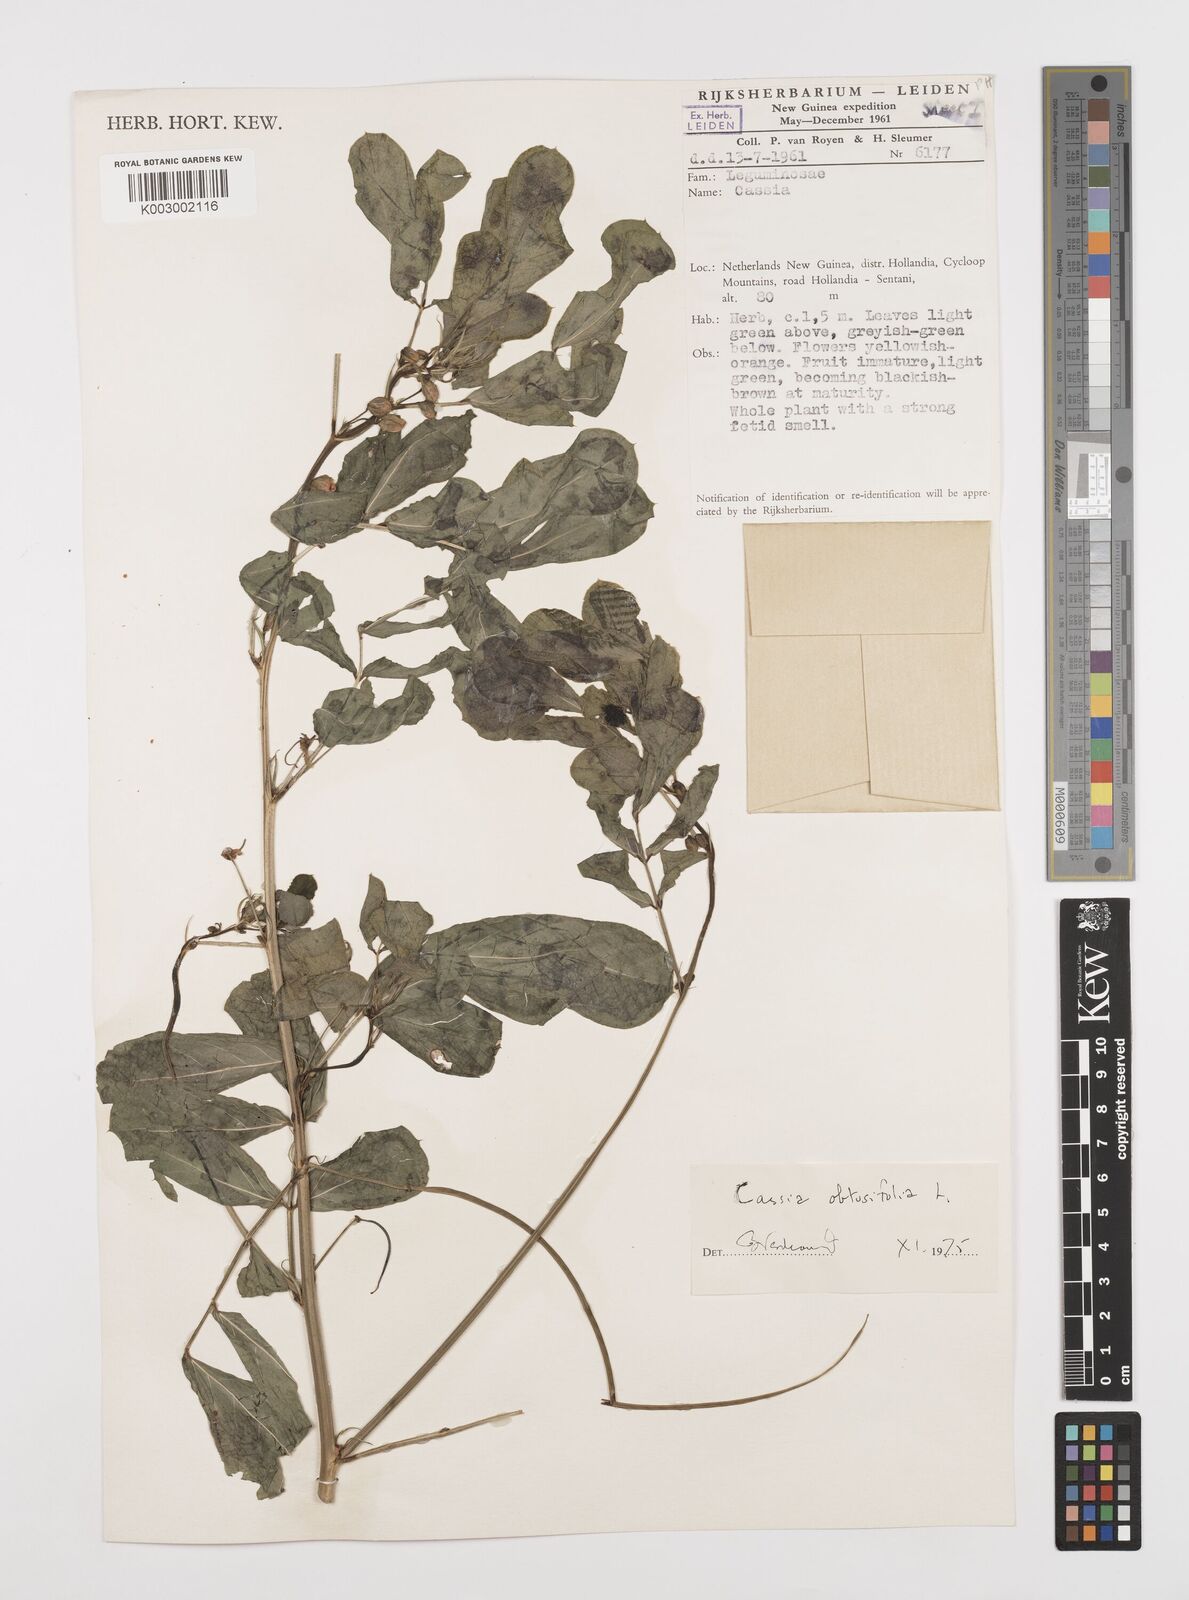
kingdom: Plantae
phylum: Tracheophyta
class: Magnoliopsida
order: Fabales
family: Fabaceae
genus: Senna
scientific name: Senna obtusifolia
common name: Java-bean
